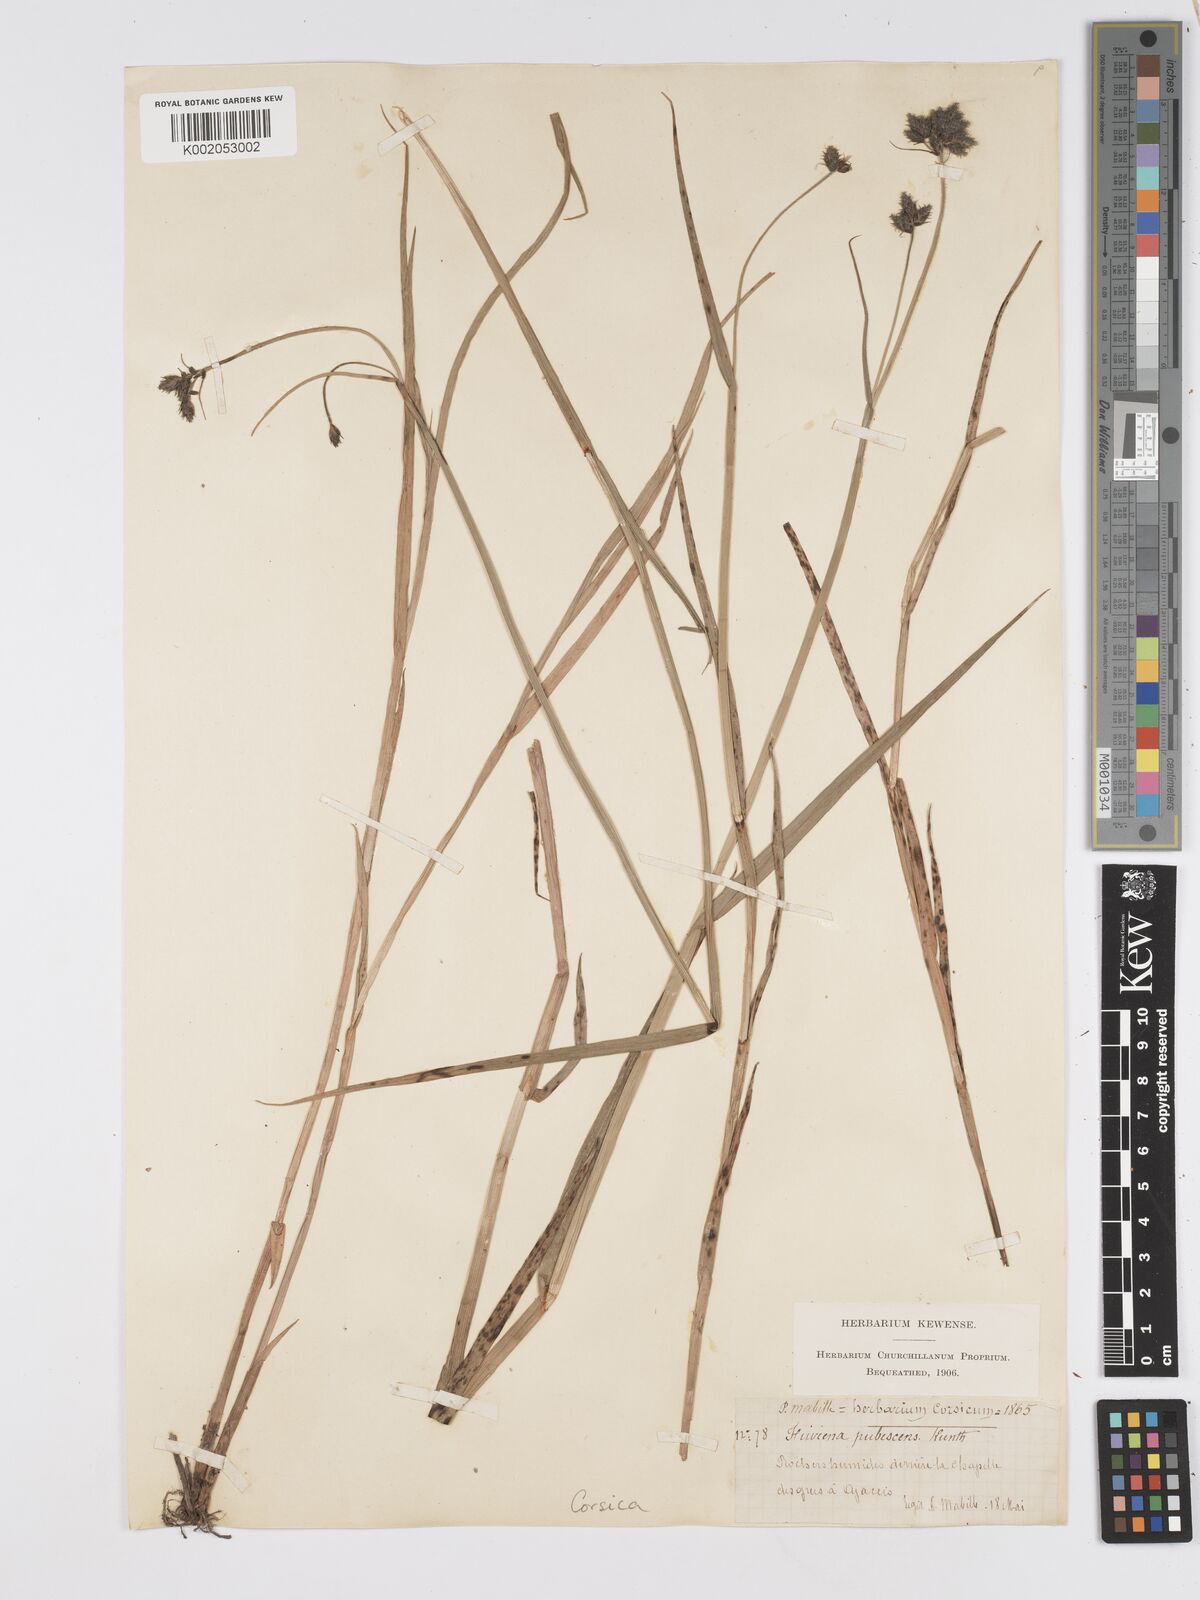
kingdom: Plantae
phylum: Tracheophyta
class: Liliopsida
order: Poales
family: Cyperaceae
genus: Fuirena
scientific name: Fuirena pubescens
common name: Hairy sedge
